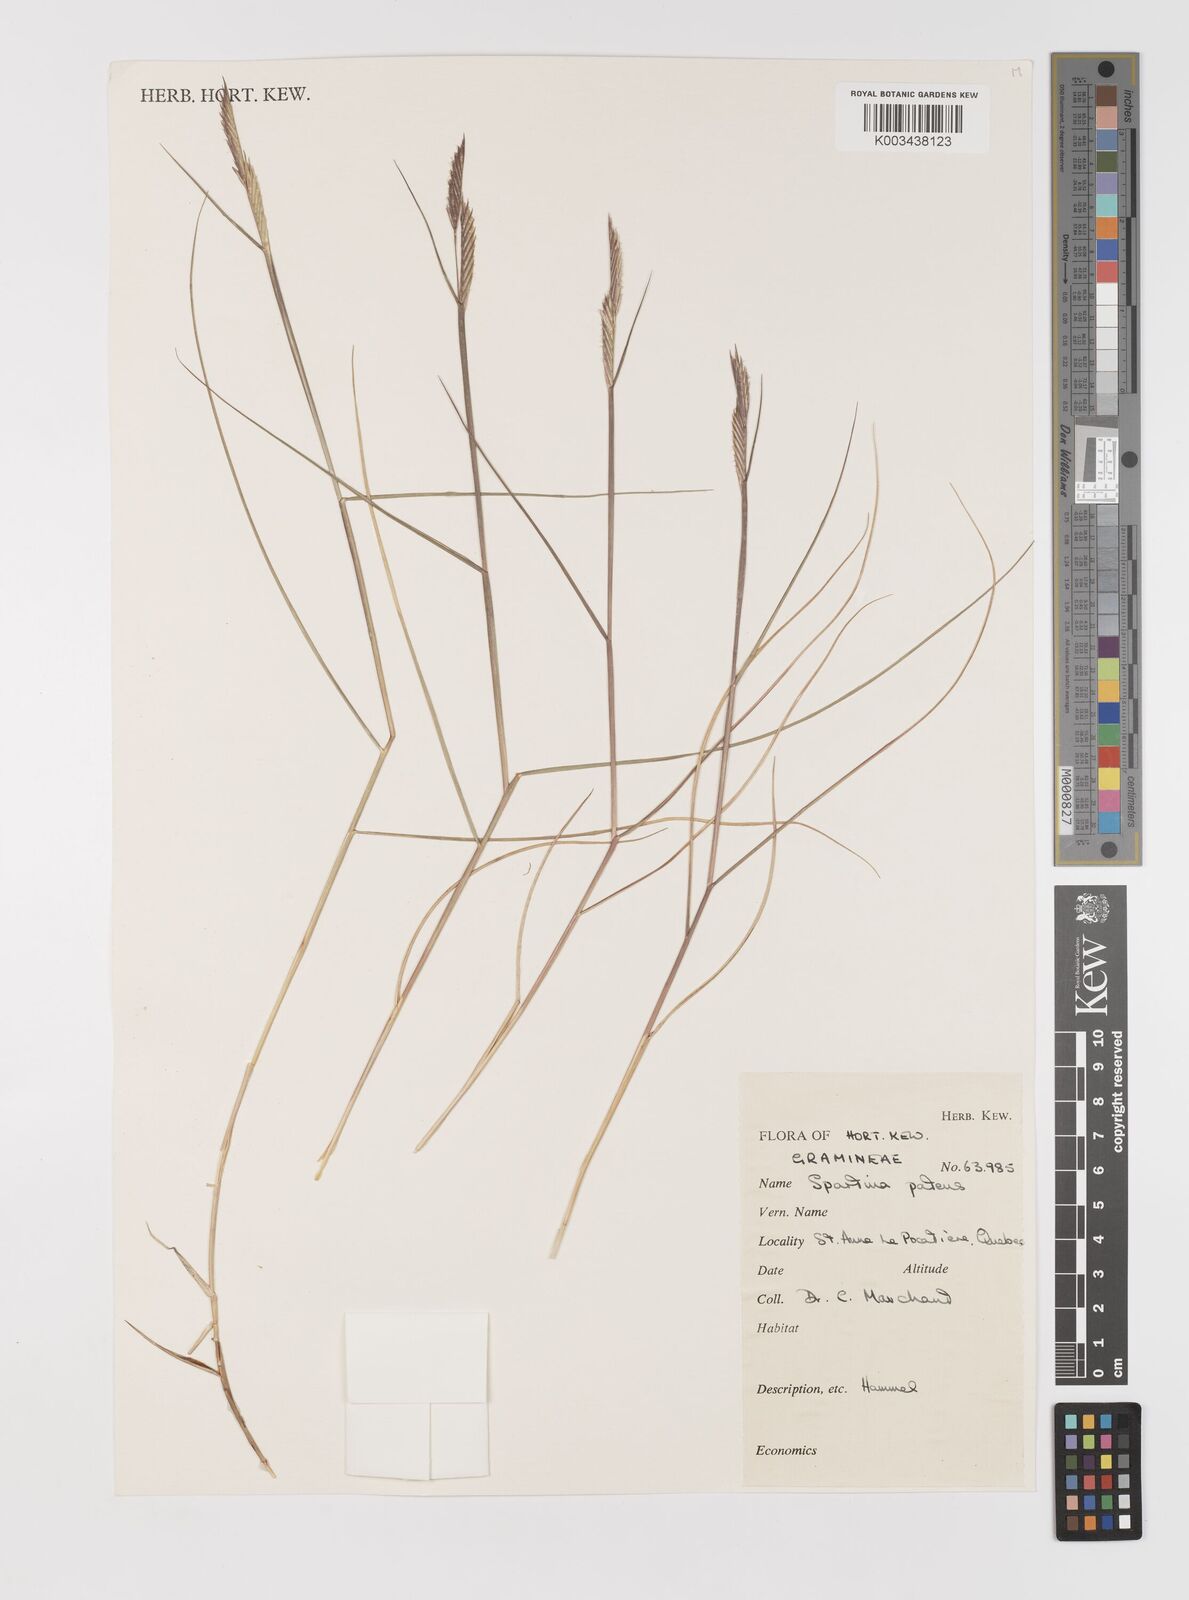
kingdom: Plantae
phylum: Tracheophyta
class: Liliopsida
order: Poales
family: Poaceae
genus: Sporobolus
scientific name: Sporobolus pumilus
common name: Highwater grass
